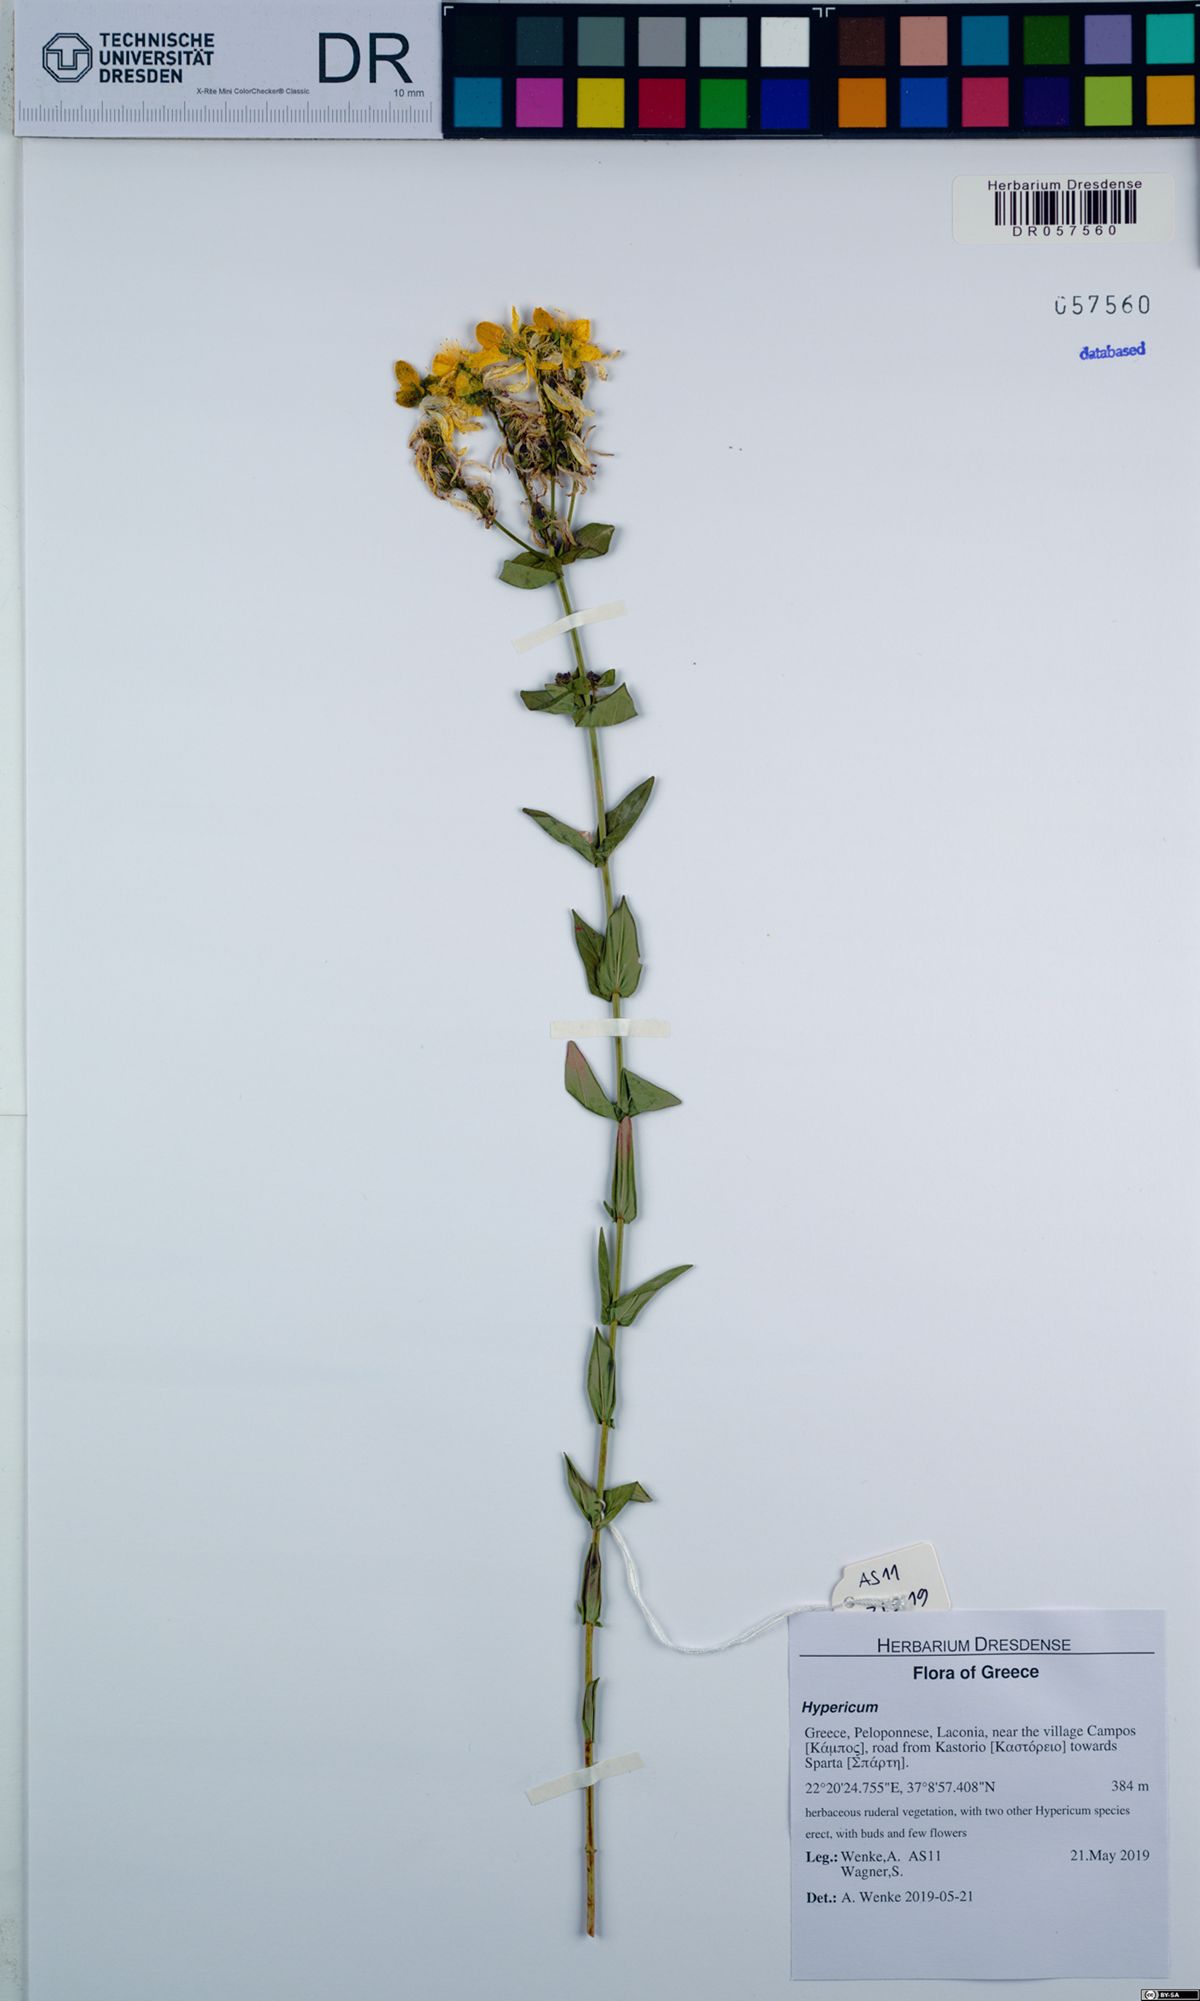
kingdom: Plantae
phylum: Tracheophyta
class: Magnoliopsida
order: Malpighiales
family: Hypericaceae
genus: Hypericum
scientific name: Hypericum perfoliatum
